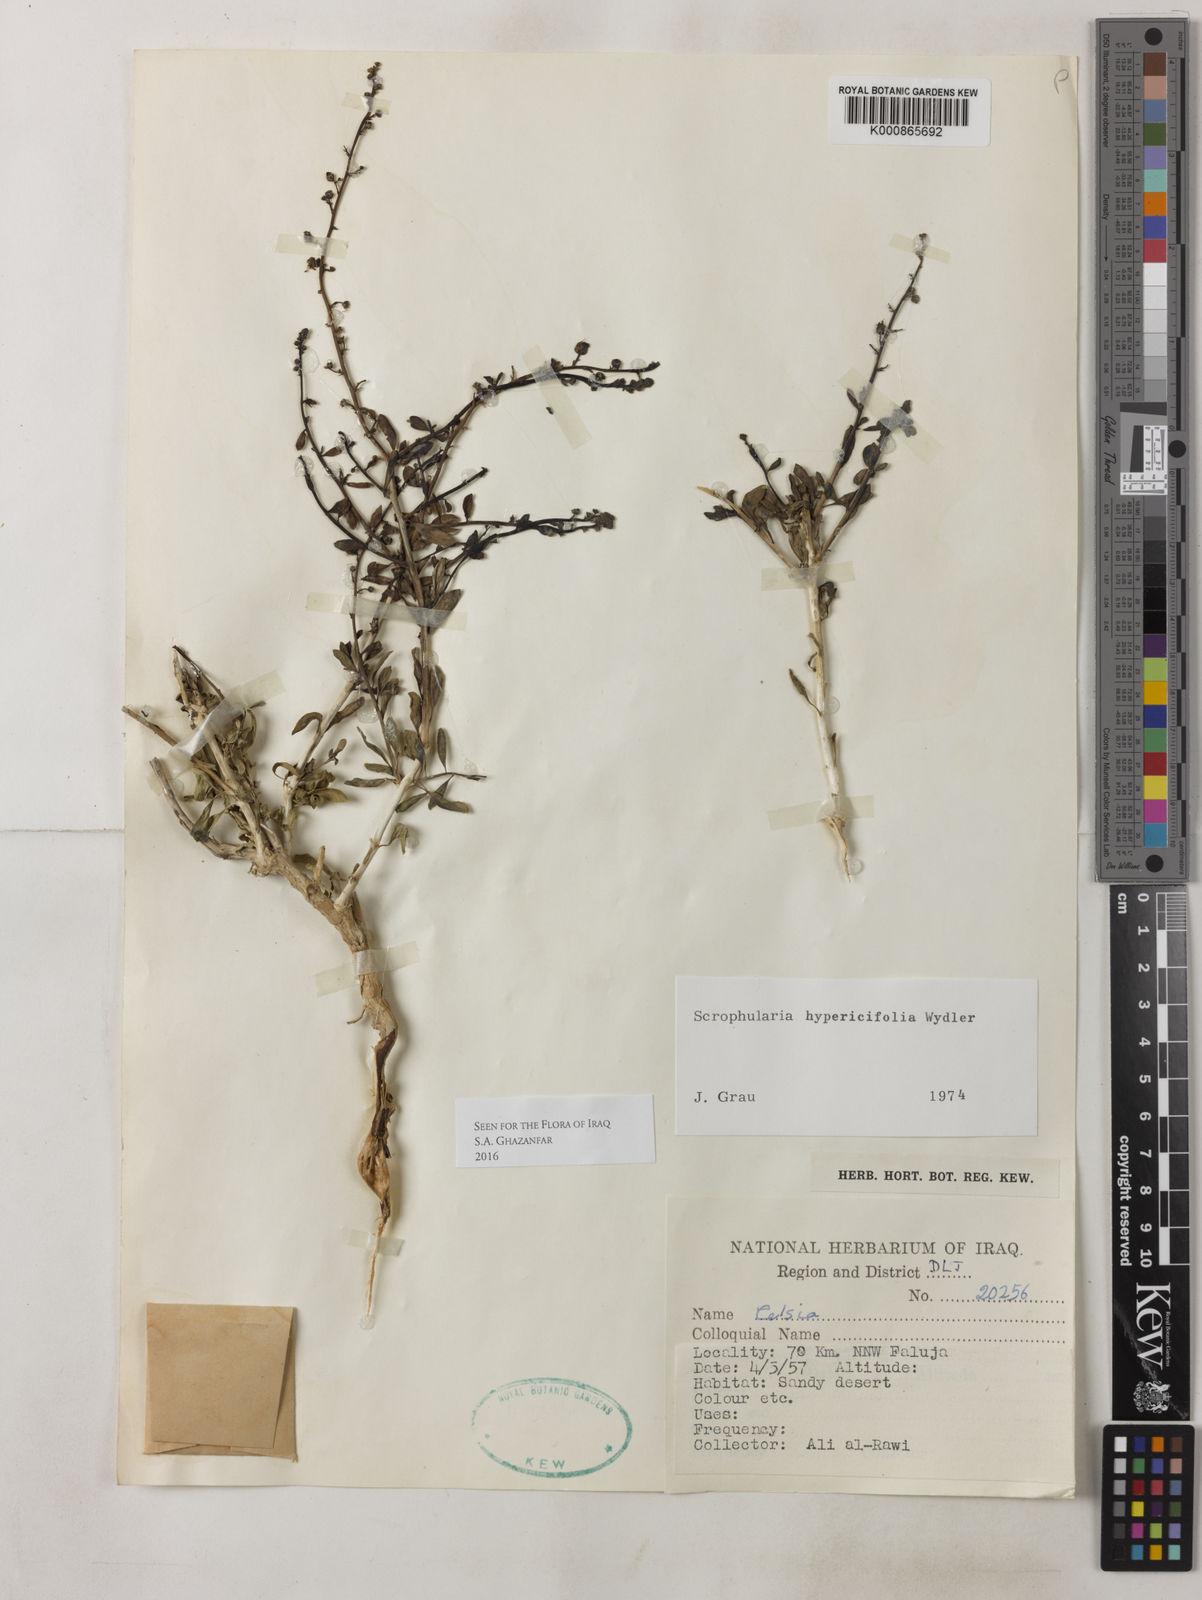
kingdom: Plantae
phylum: Tracheophyta
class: Magnoliopsida
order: Lamiales
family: Scrophulariaceae
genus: Scrophularia
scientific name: Scrophularia hypericifolia
